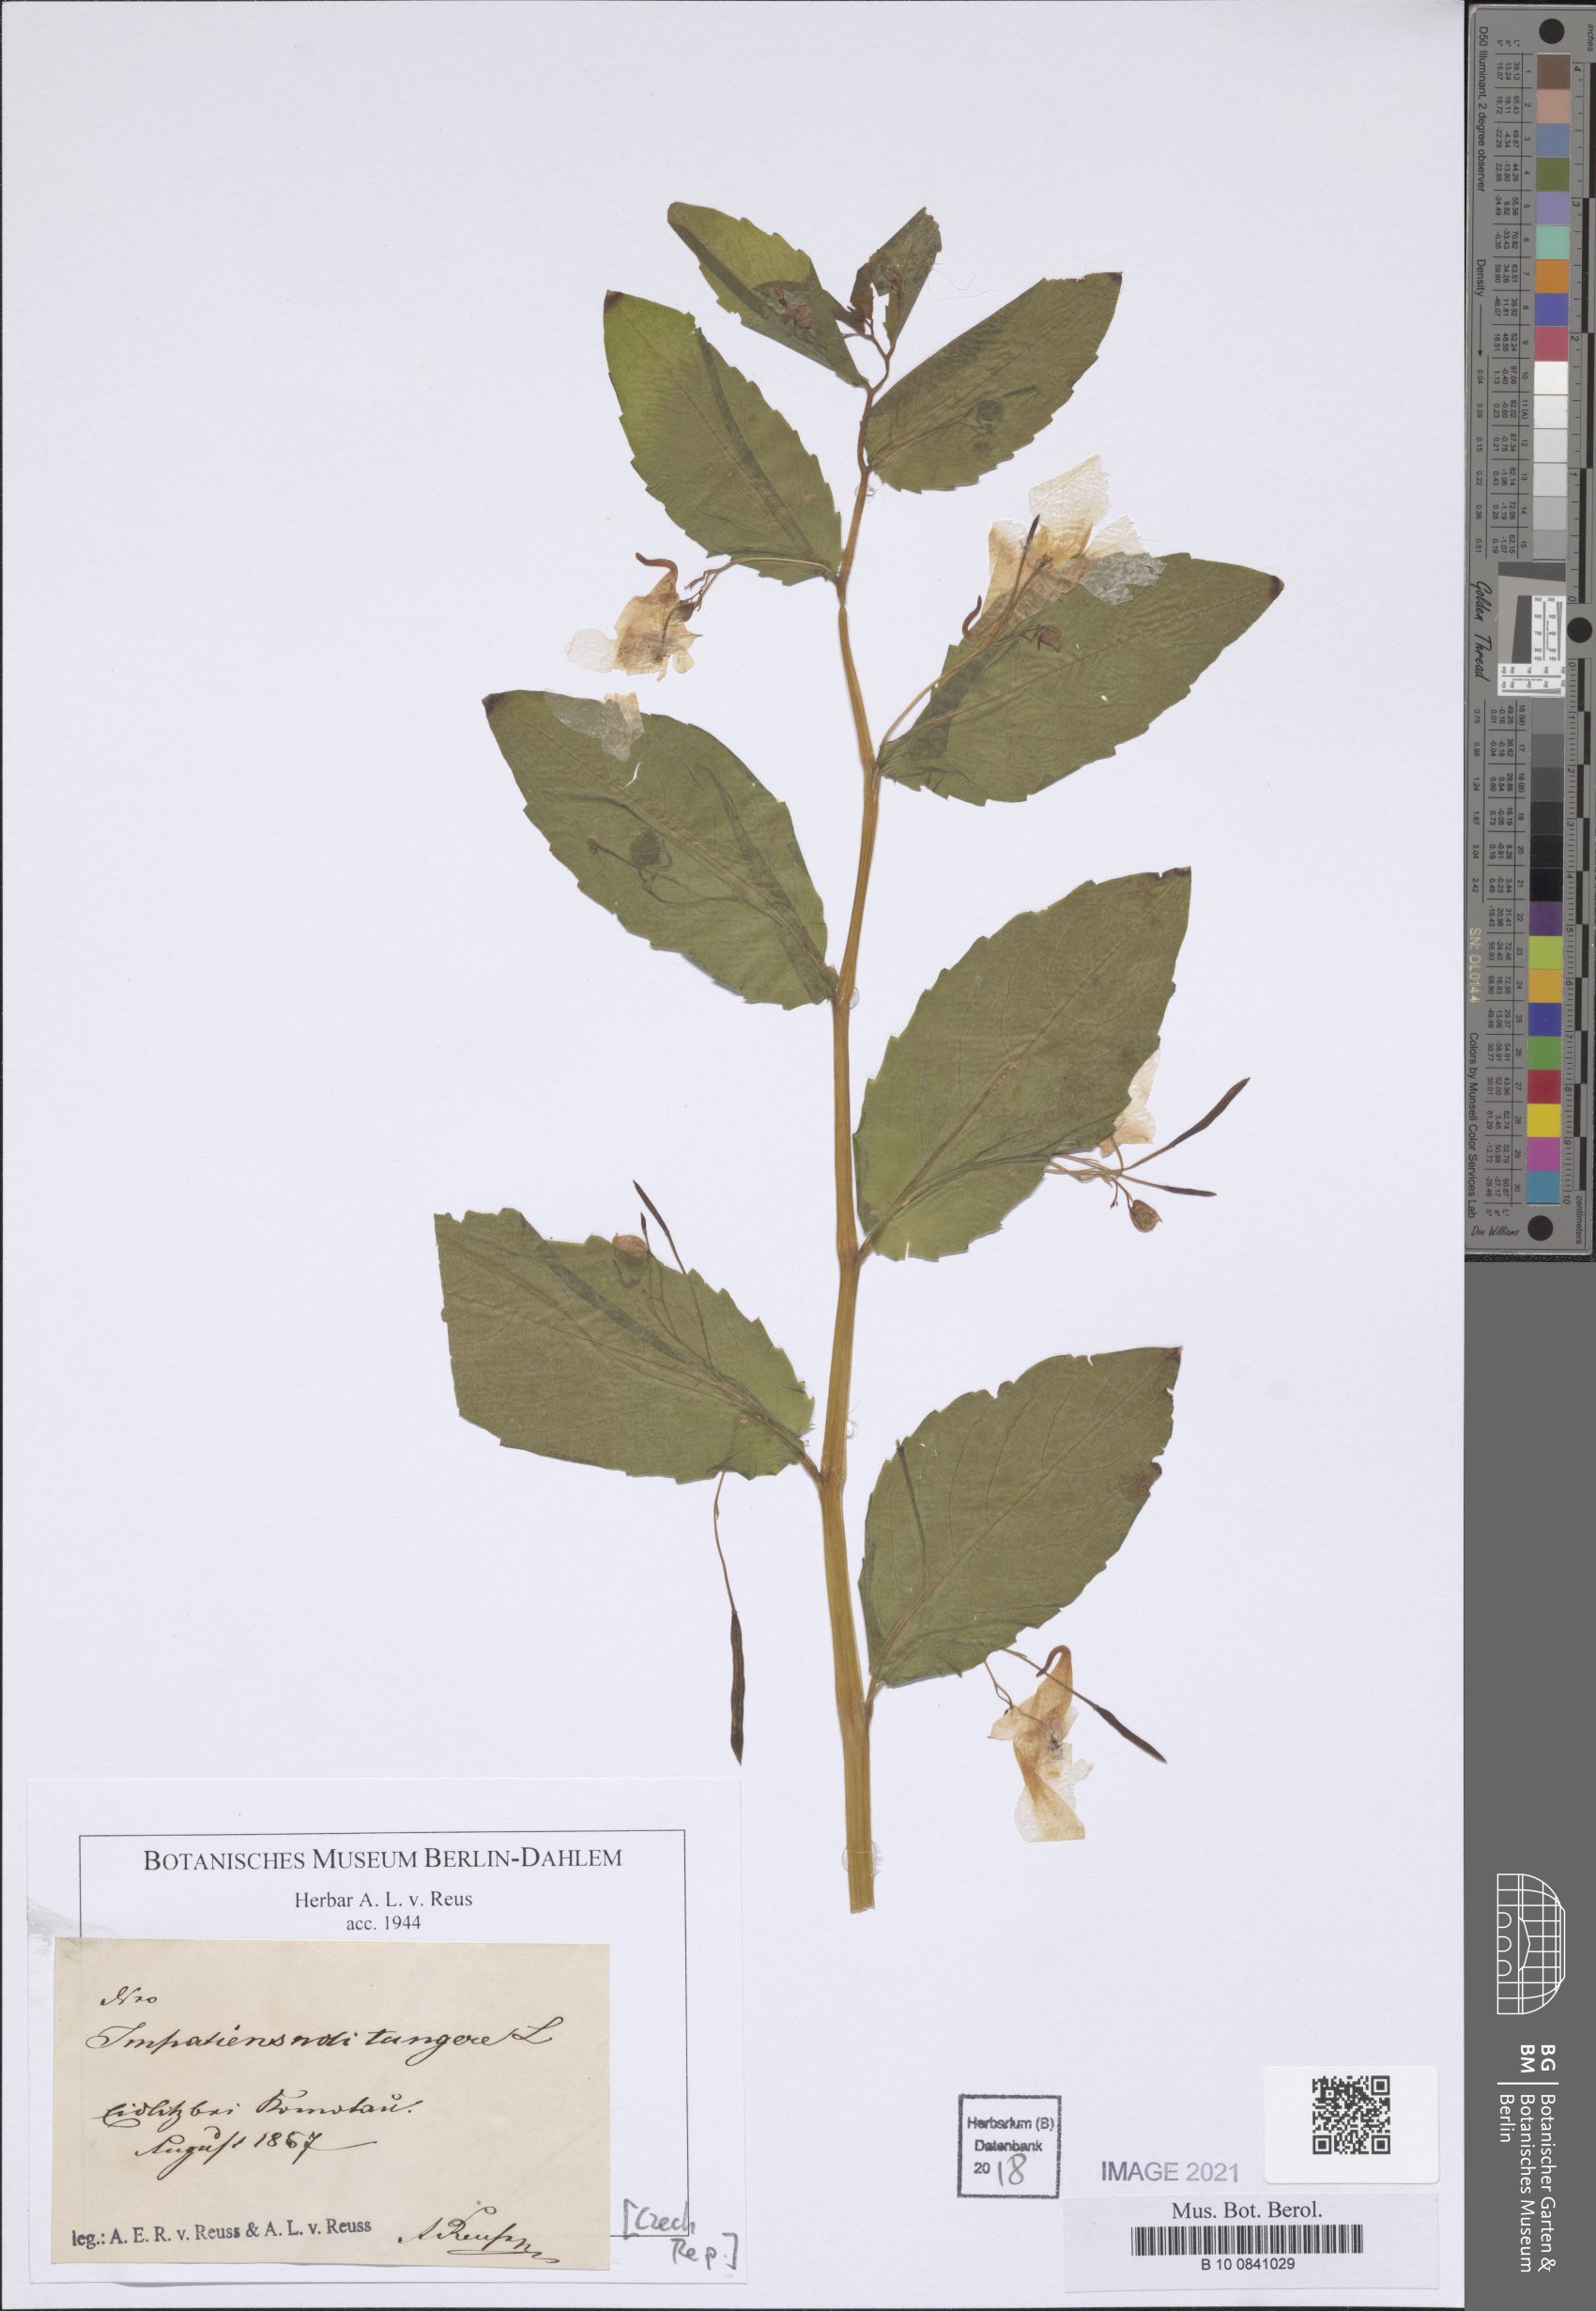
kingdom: Plantae
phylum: Tracheophyta
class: Magnoliopsida
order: Ericales
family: Balsaminaceae
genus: Impatiens
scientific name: Impatiens noli-tangere
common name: Touch-me-not balsam
